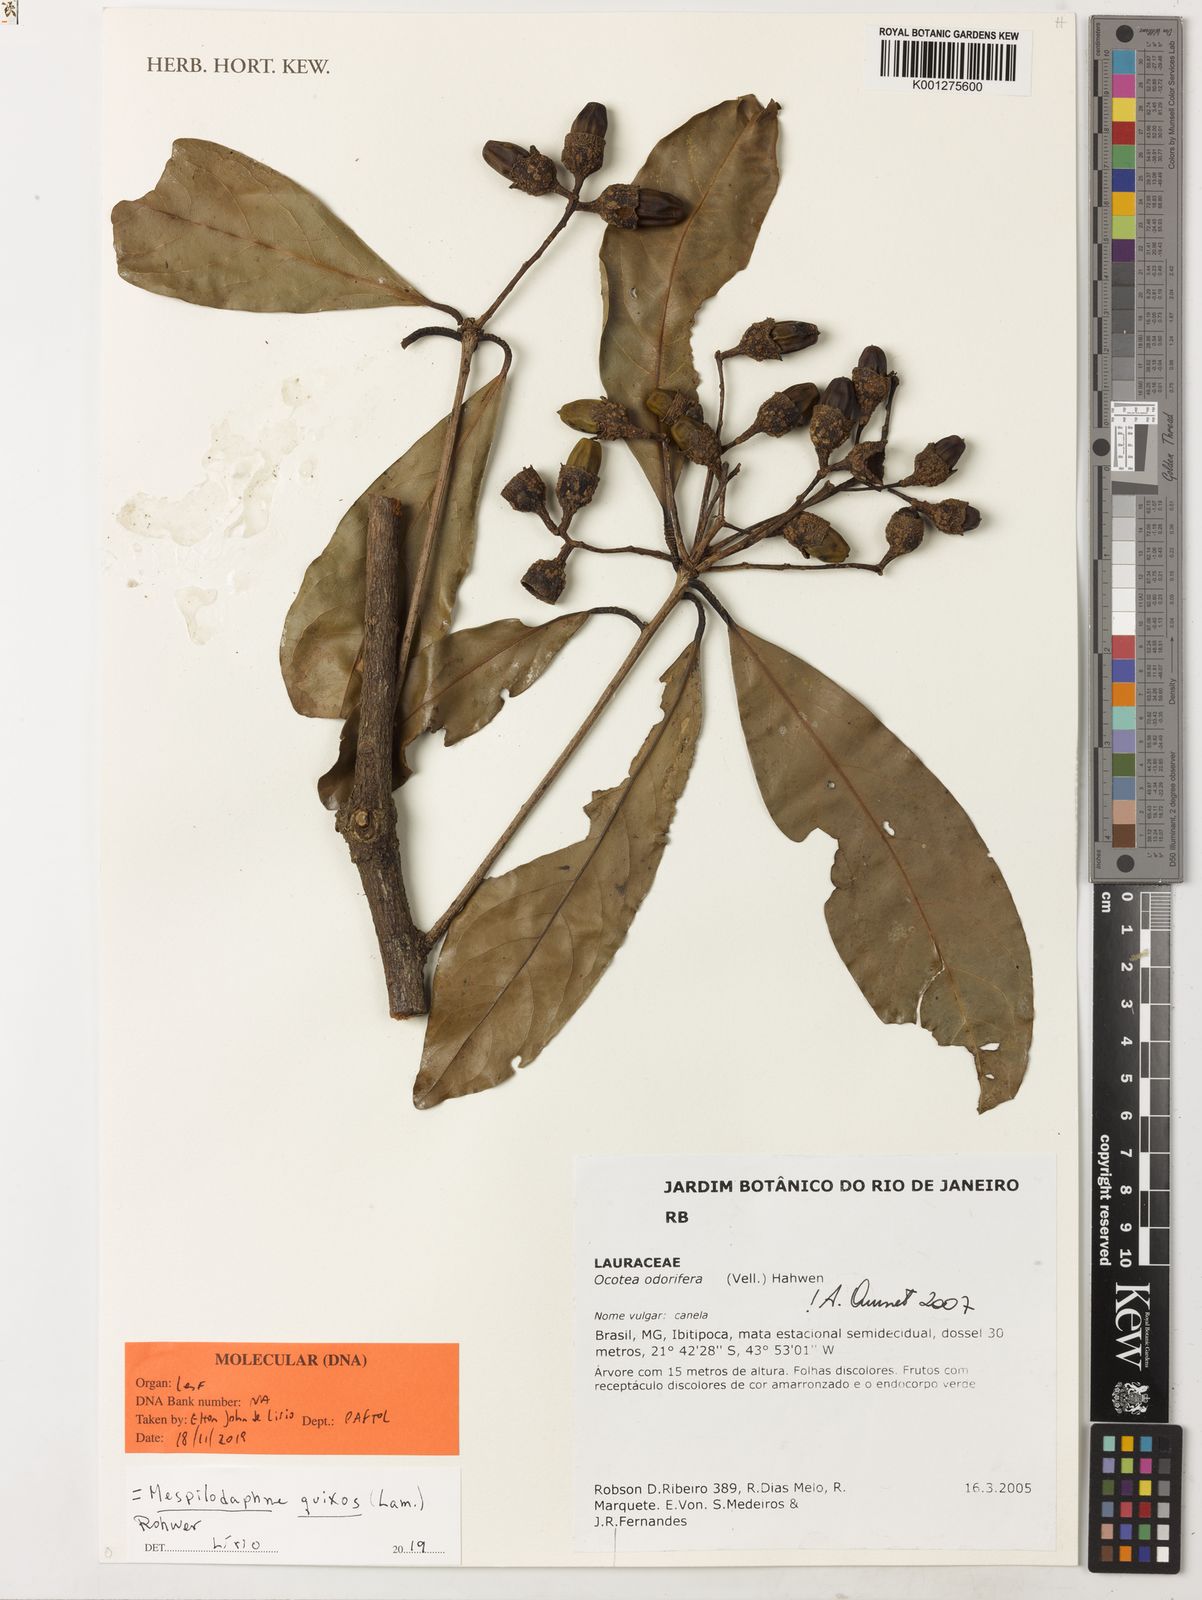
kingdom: Plantae
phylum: Tracheophyta
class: Magnoliopsida
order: Laurales
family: Lauraceae
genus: Mespilodaphne
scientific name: Mespilodaphne quixos
